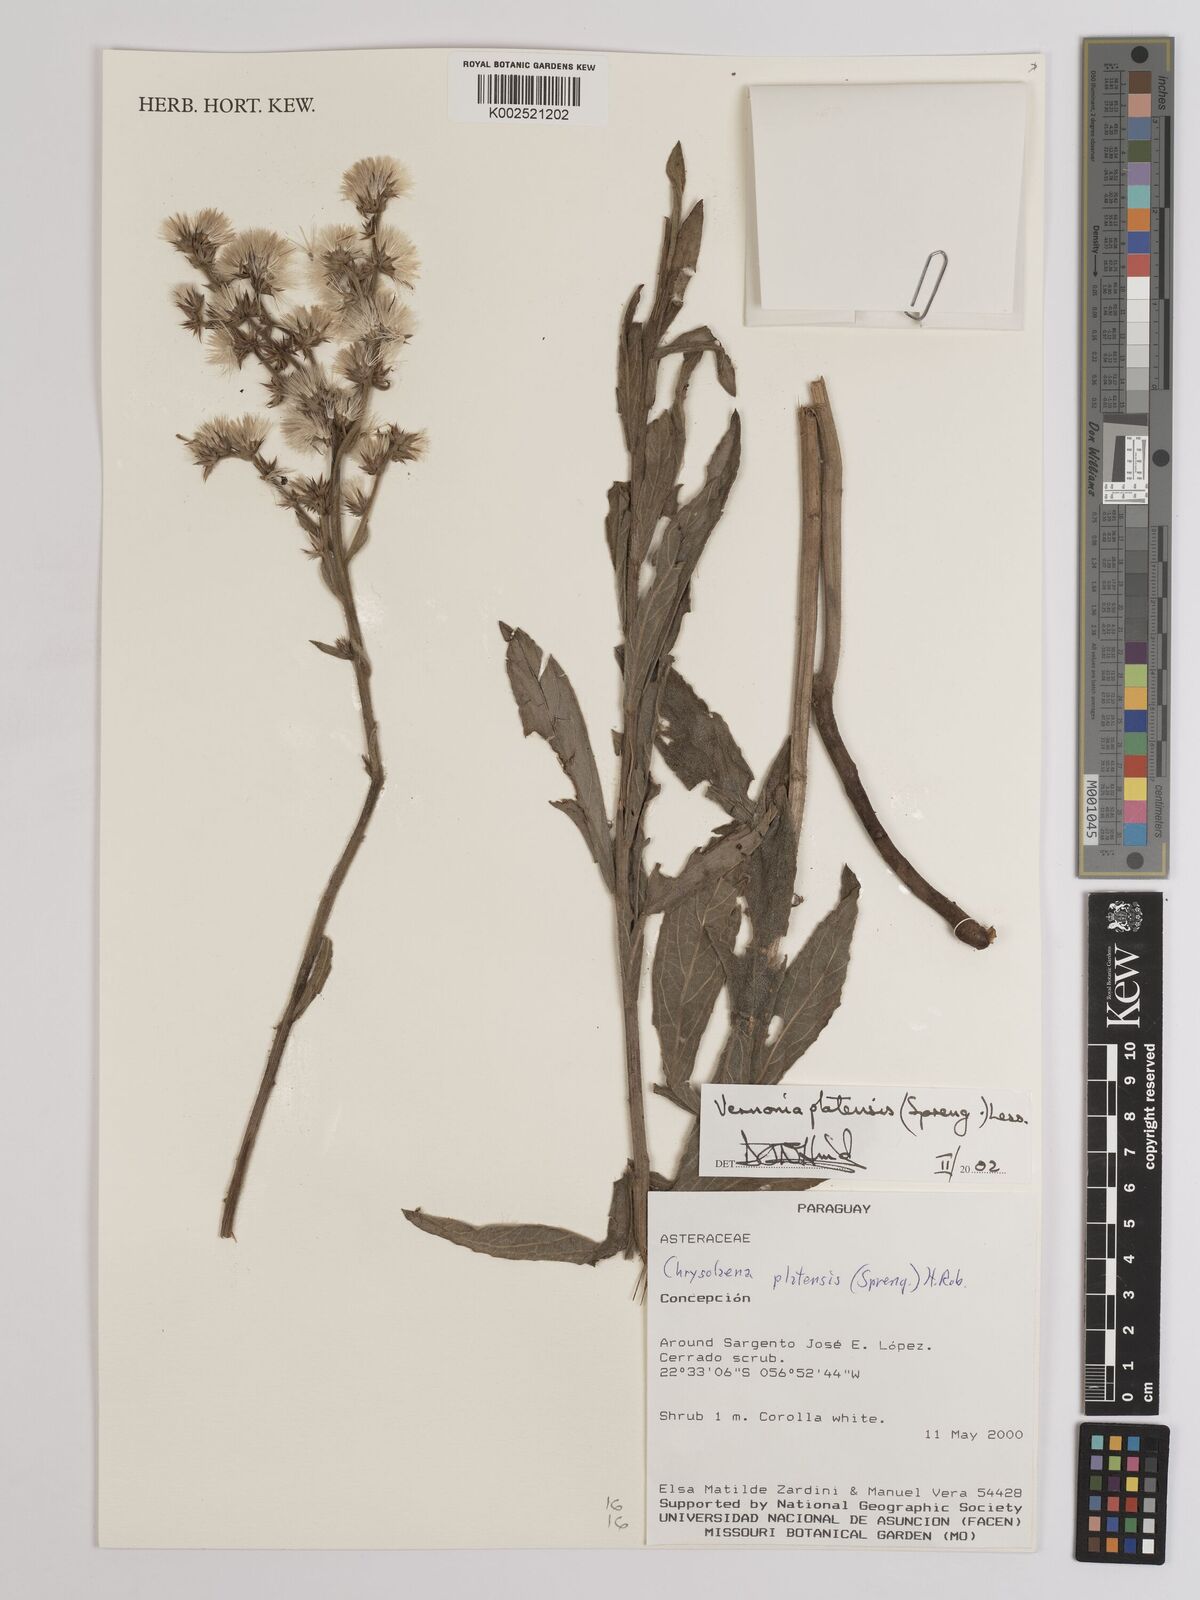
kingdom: Plantae
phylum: Tracheophyta
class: Magnoliopsida
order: Asterales
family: Asteraceae
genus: Chrysolaena
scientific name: Chrysolaena platensis
